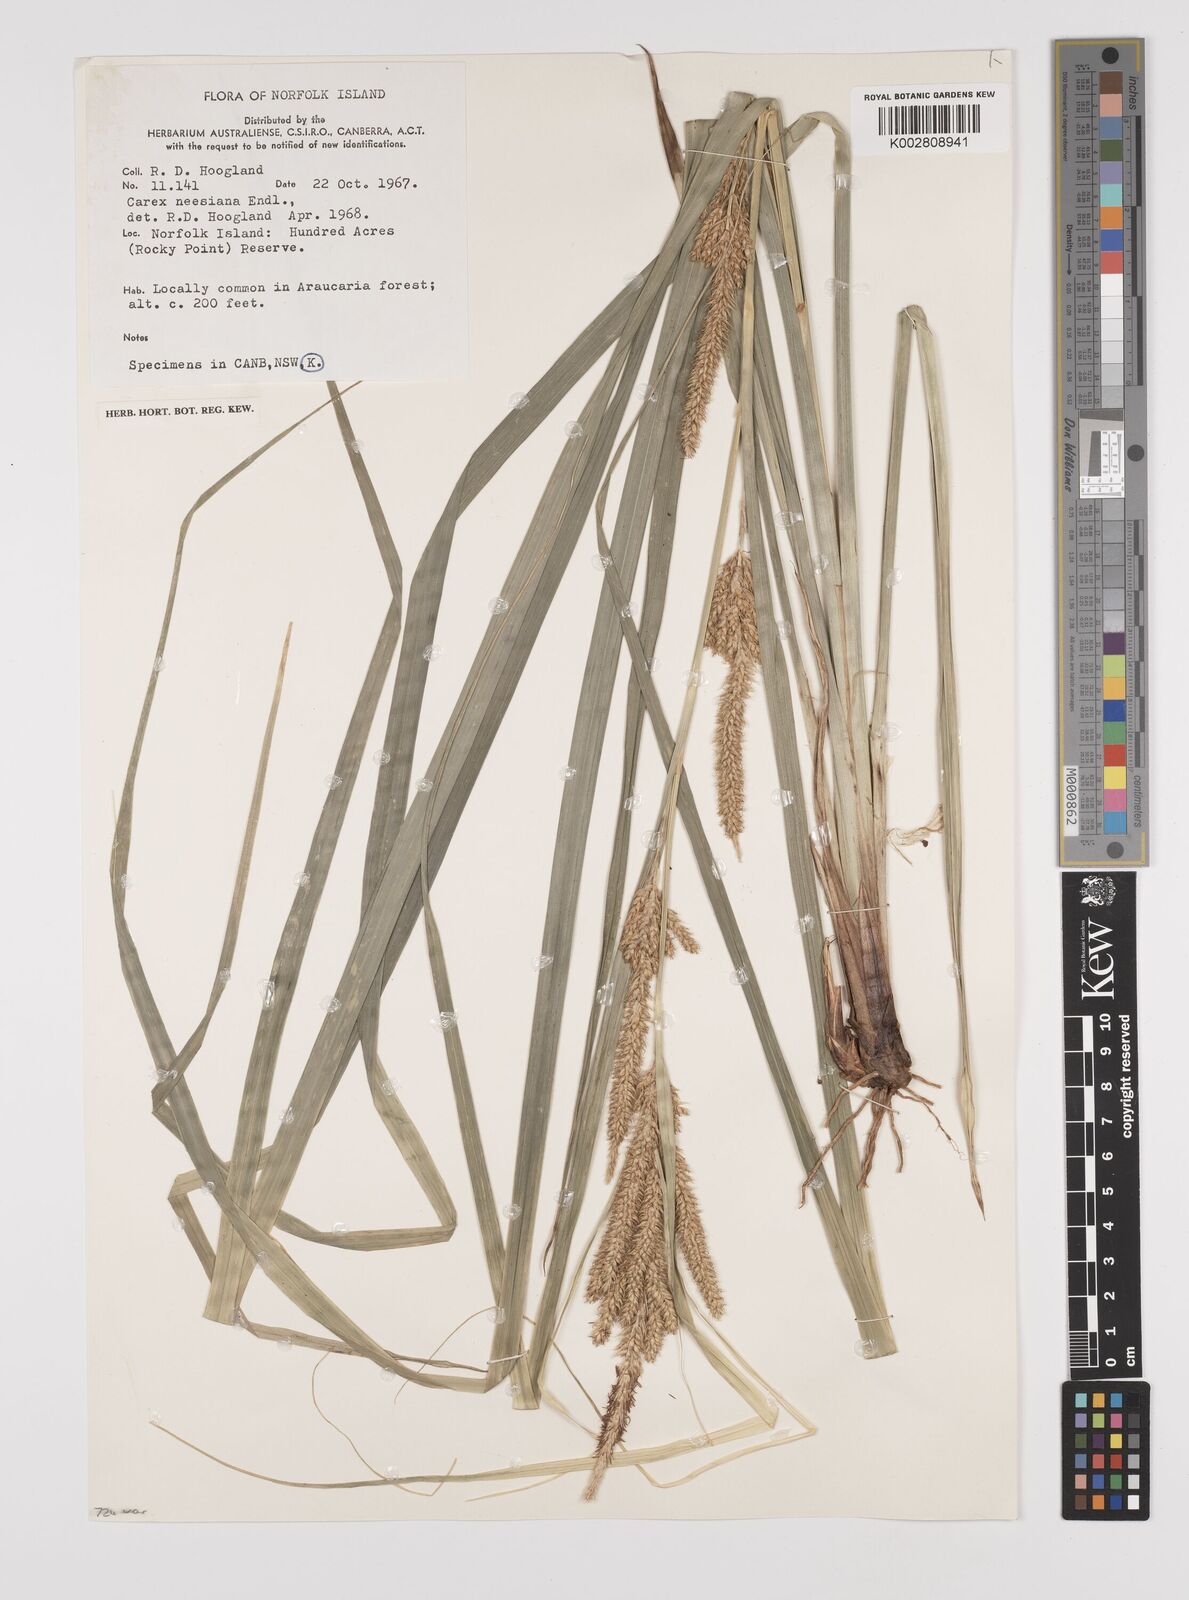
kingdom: Plantae
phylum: Tracheophyta
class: Liliopsida
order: Poales
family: Cyperaceae
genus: Carex
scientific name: Carex neesiana
